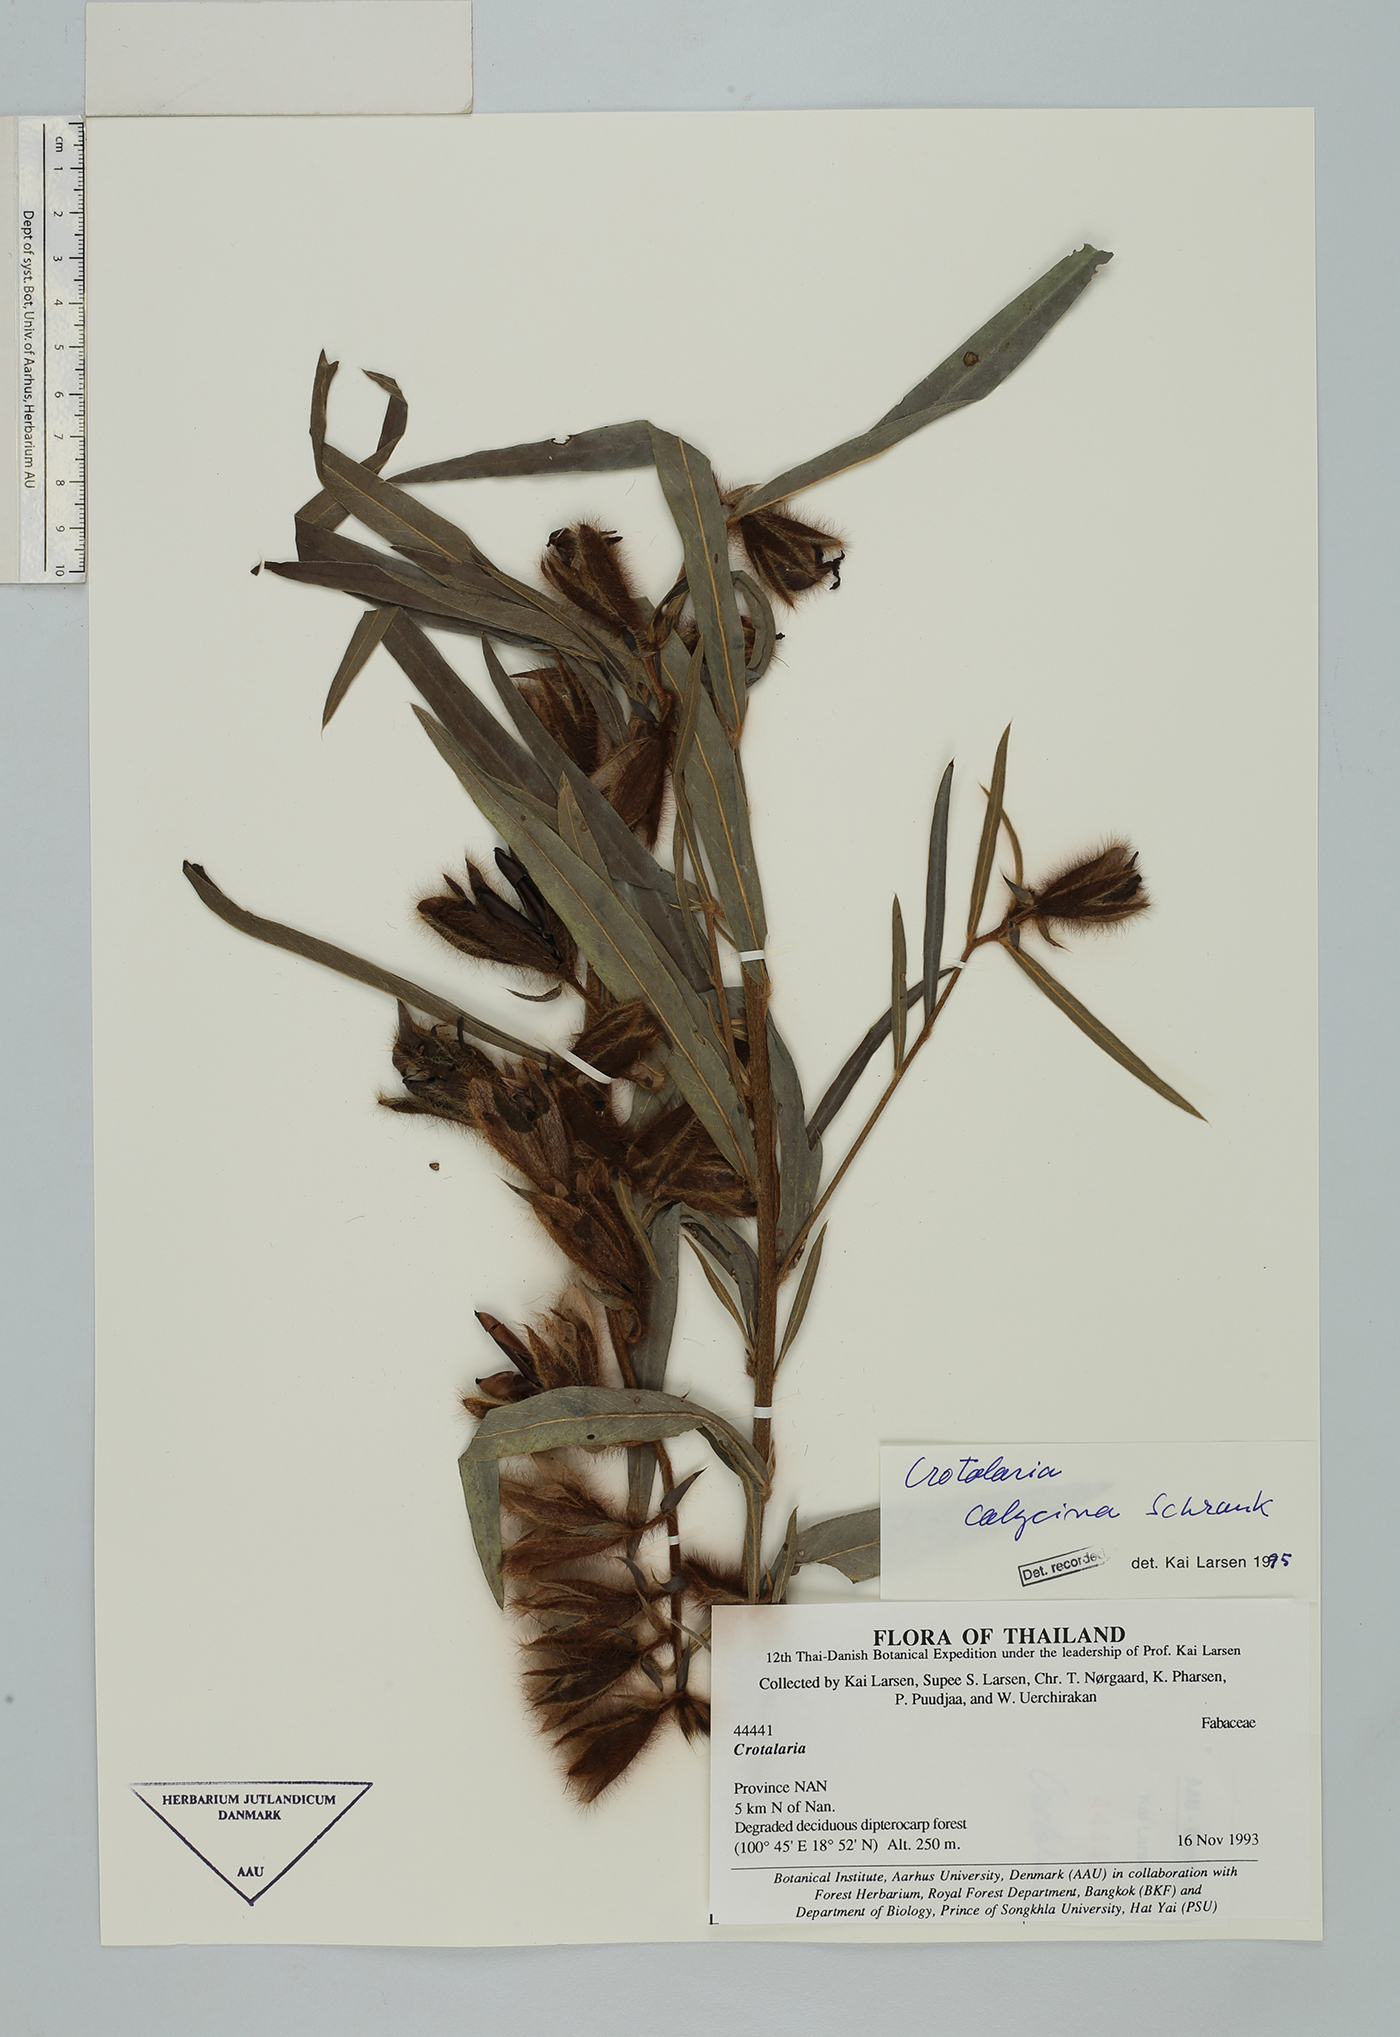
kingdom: Plantae
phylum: Tracheophyta
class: Magnoliopsida
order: Fabales
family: Fabaceae
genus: Crotalaria
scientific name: Crotalaria calycina
